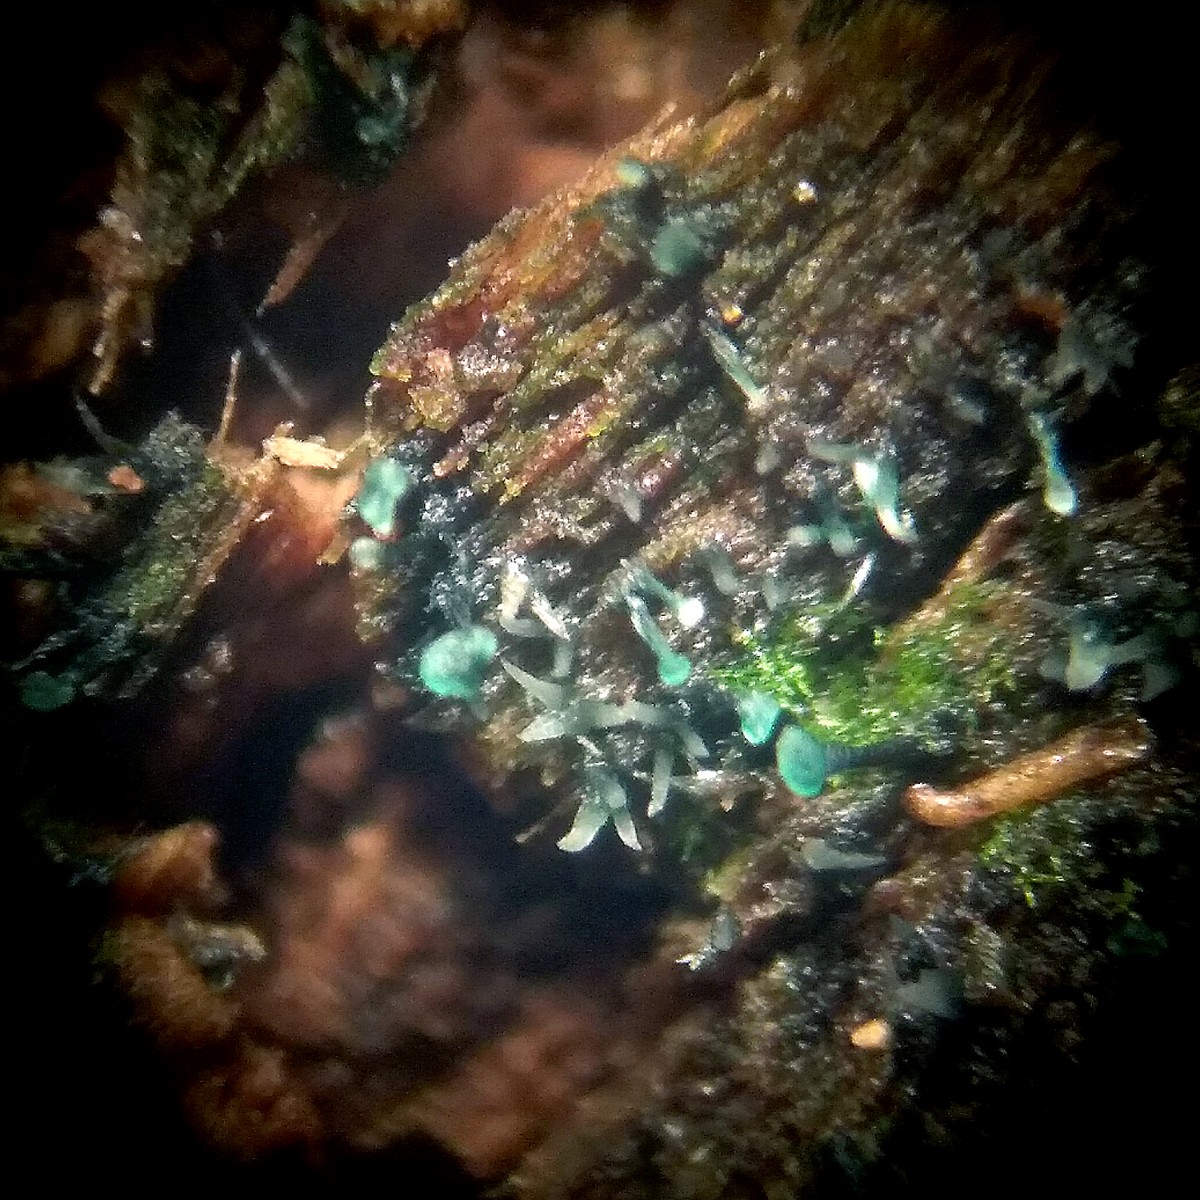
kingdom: Fungi
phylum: Ascomycota
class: Leotiomycetes
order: Leotiales
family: Tympanidaceae
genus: Dendrostilbella
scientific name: Dendrostilbella smaragdina
